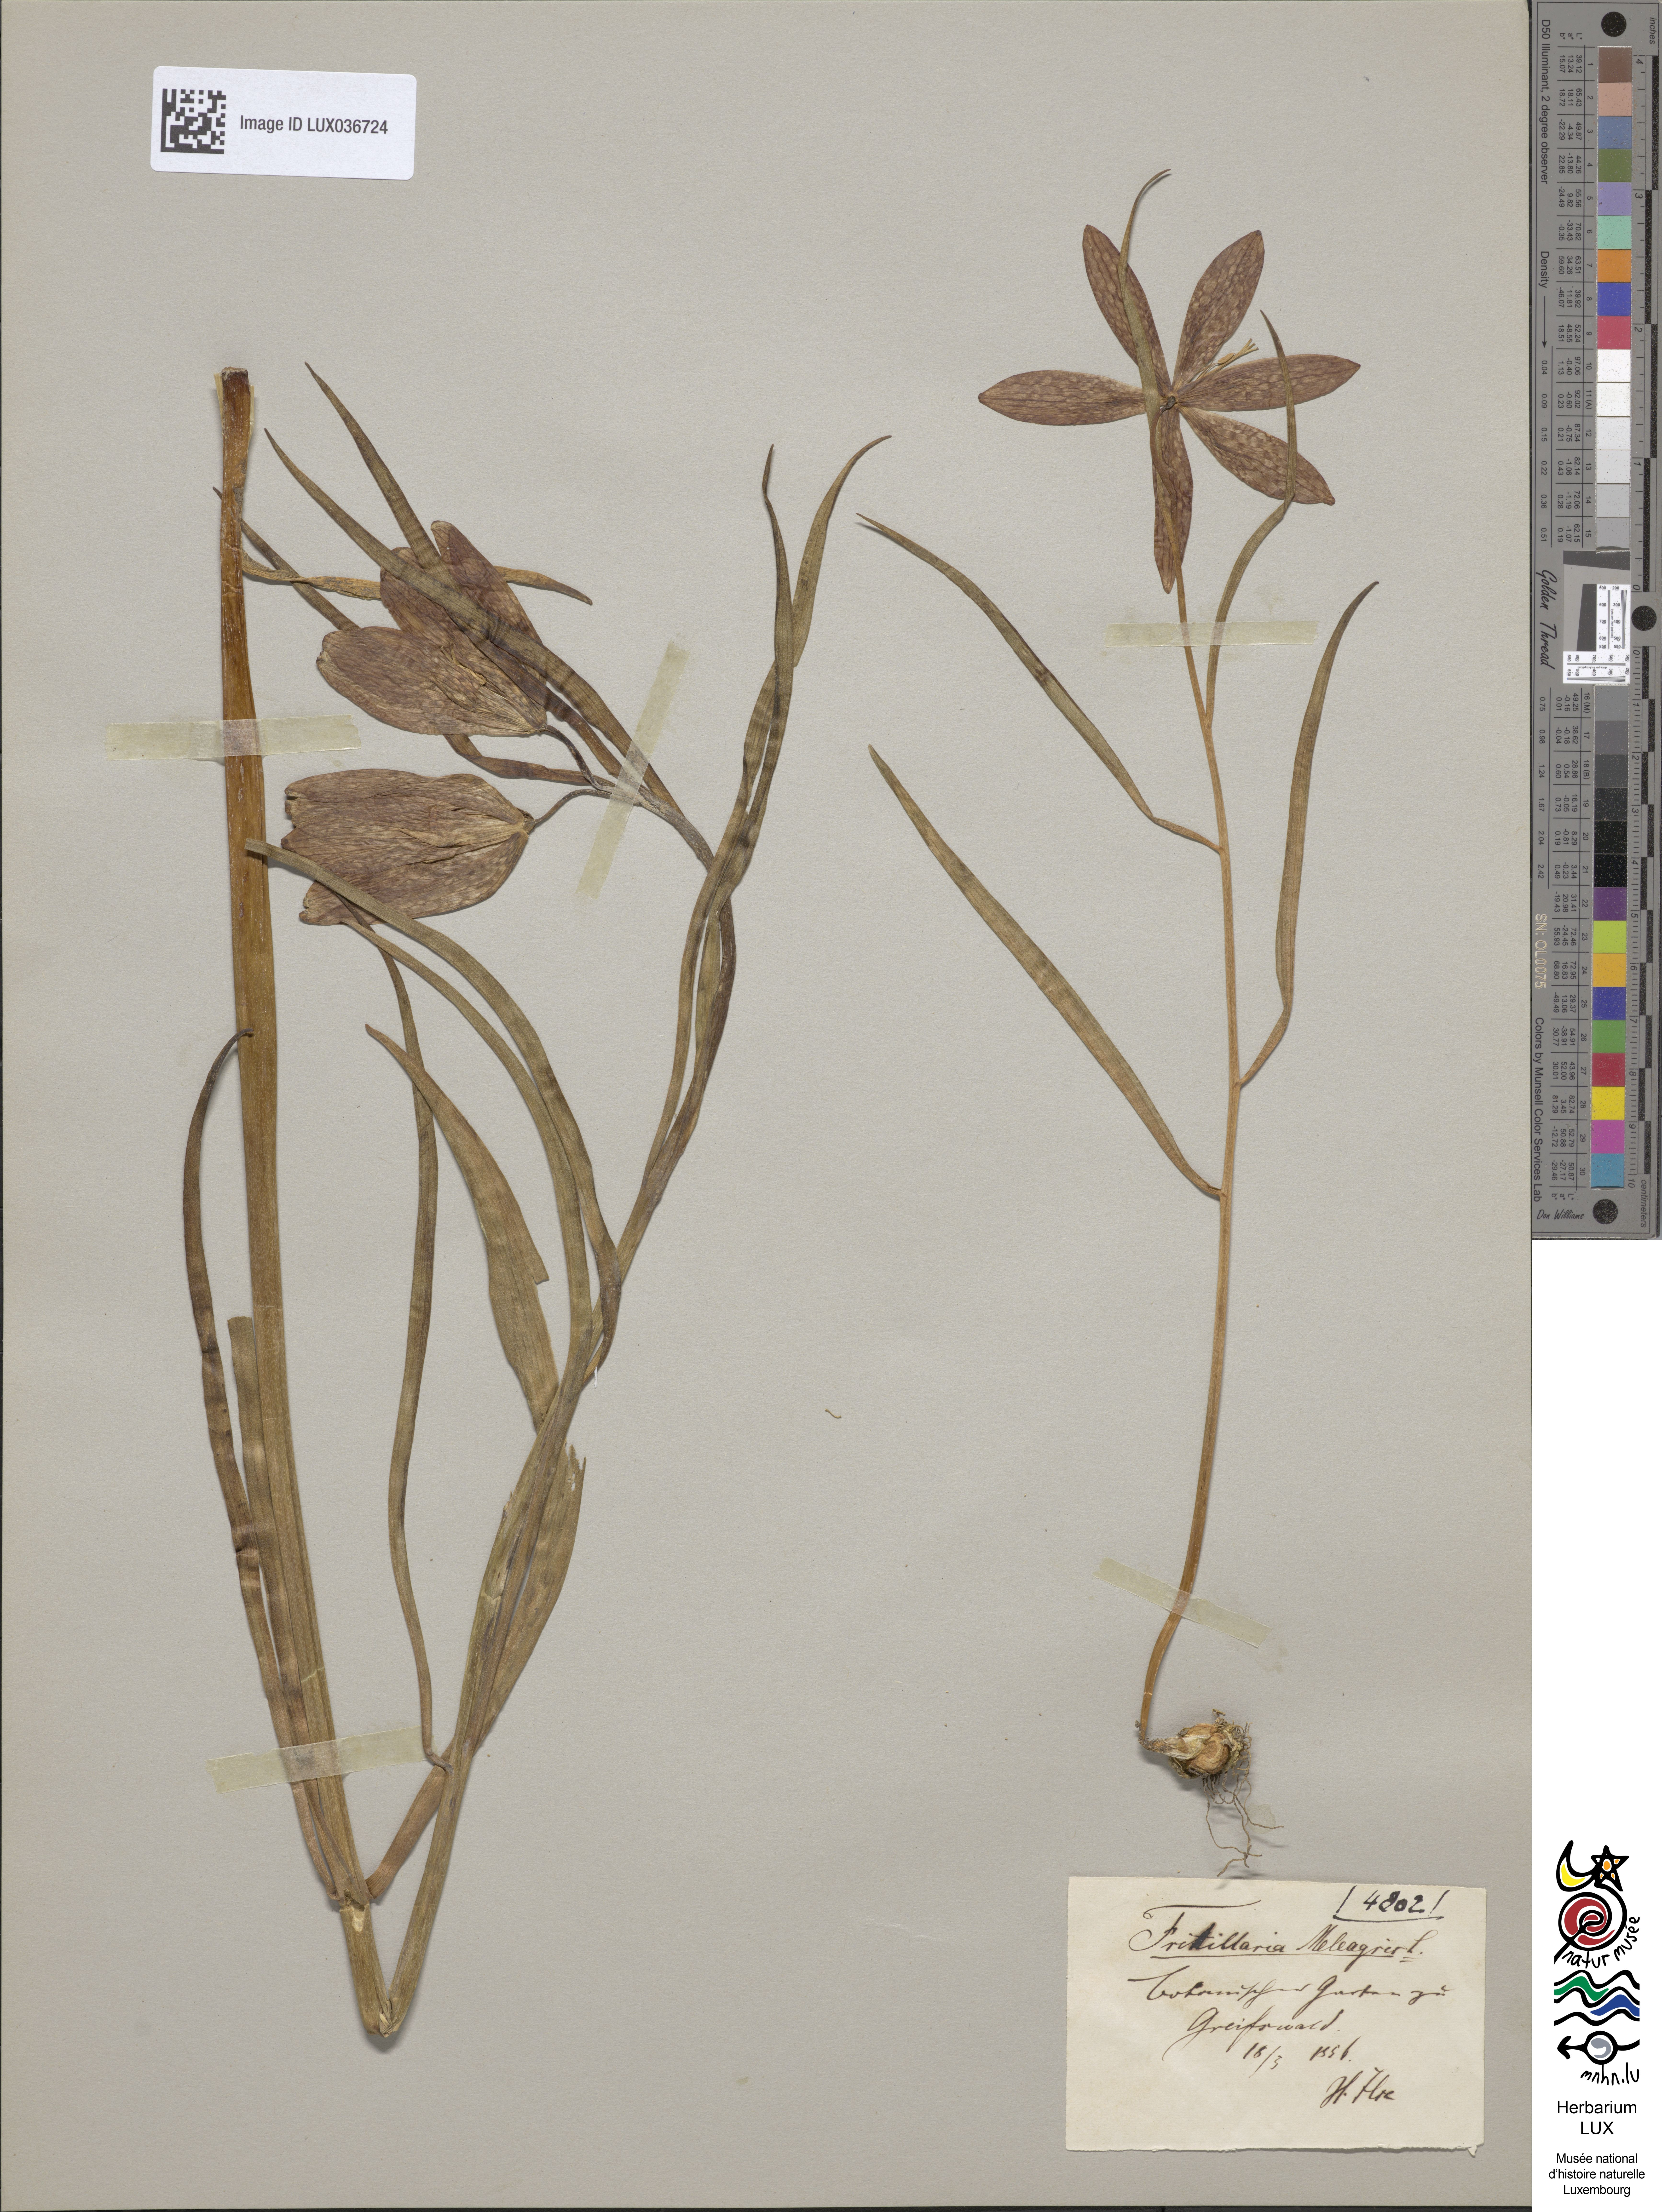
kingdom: Plantae
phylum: Tracheophyta
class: Liliopsida
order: Liliales
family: Liliaceae
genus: Fritillaria
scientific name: Fritillaria meleagris
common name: Fritillary
